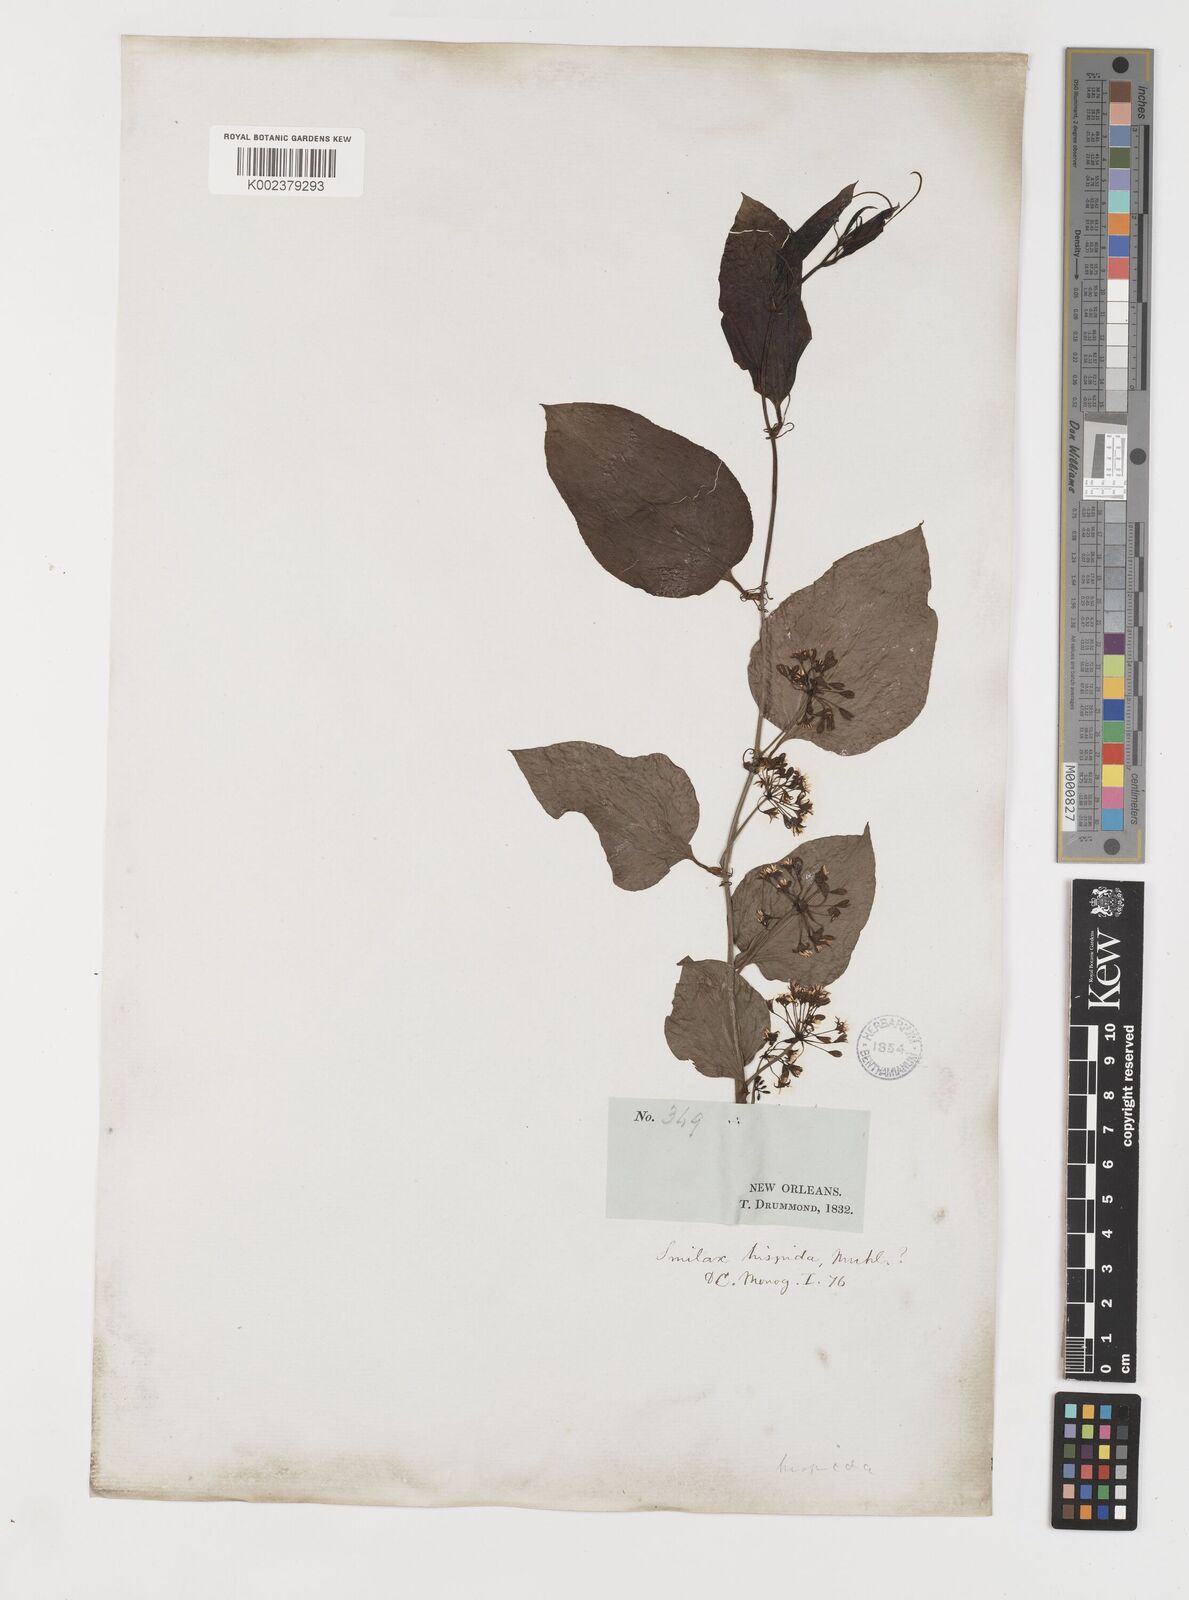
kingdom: Plantae
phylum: Tracheophyta
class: Liliopsida
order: Liliales
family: Smilacaceae
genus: Smilax
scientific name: Smilax tamnoides
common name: Hellfetter
